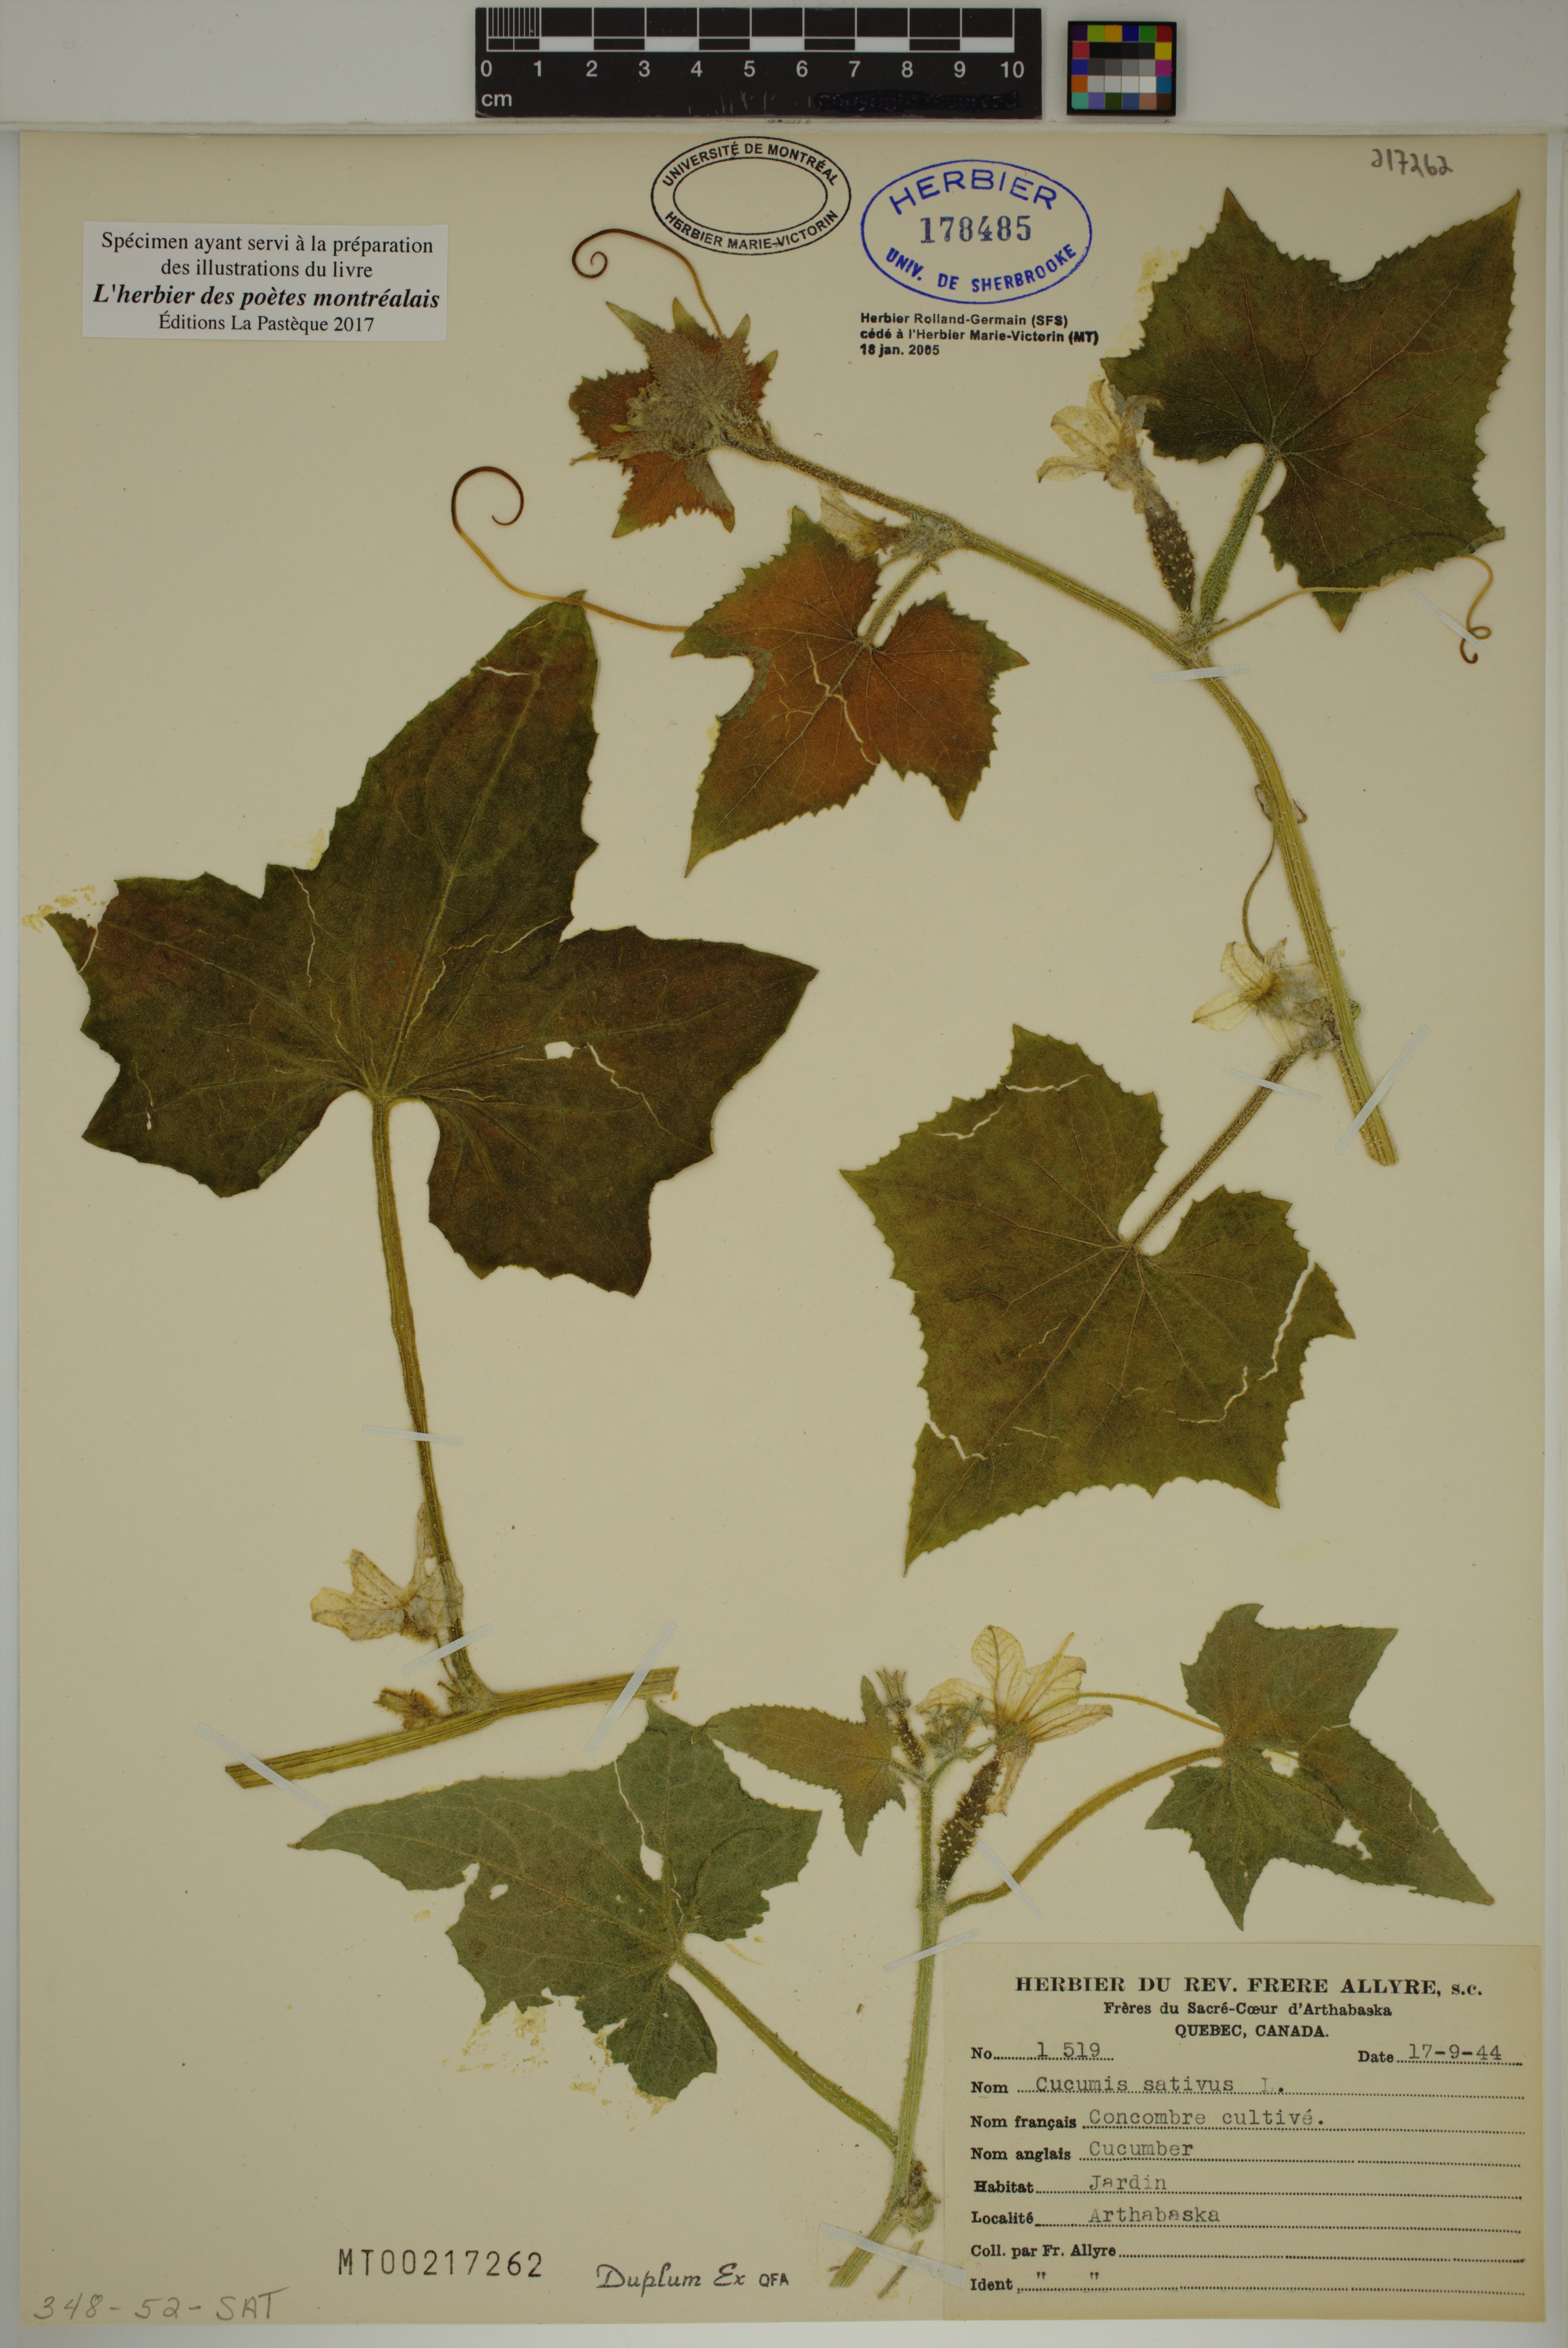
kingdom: Plantae
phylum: Tracheophyta
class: Magnoliopsida
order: Cucurbitales
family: Cucurbitaceae
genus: Cucumis
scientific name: Cucumis sativus
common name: Cucumber
